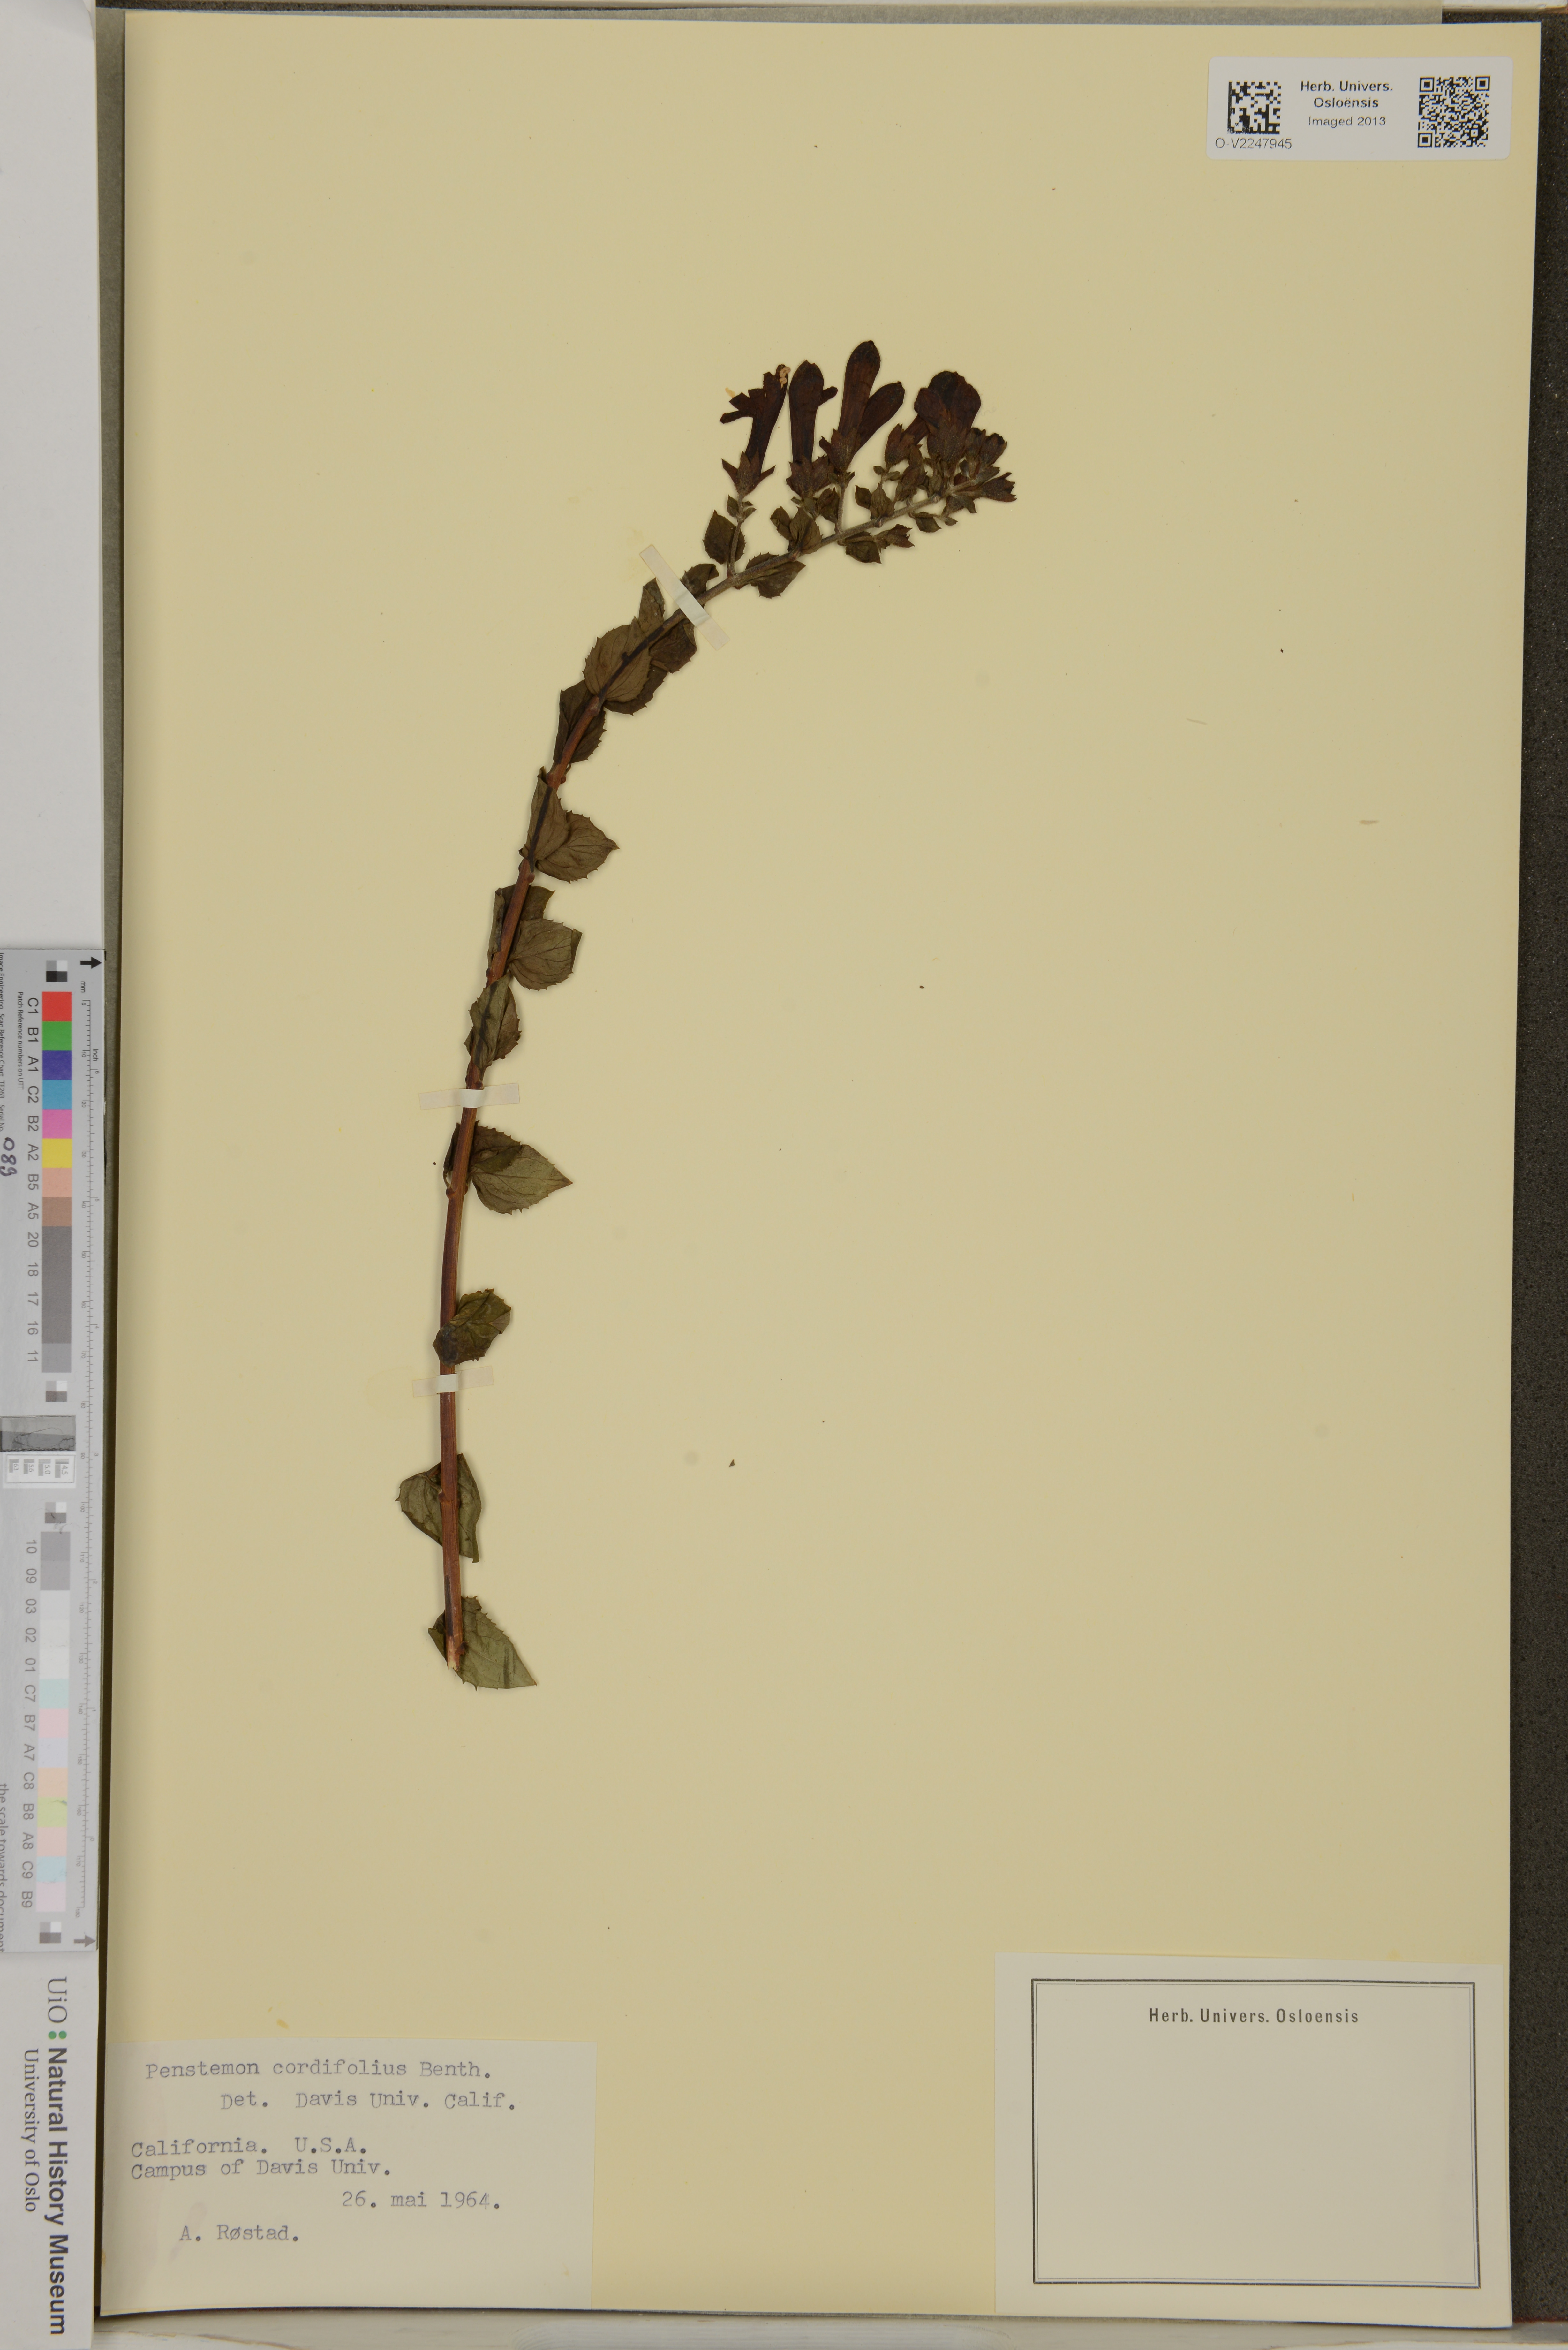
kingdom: Plantae
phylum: Tracheophyta
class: Magnoliopsida
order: Lamiales
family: Plantaginaceae
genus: Keckiella
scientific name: Keckiella cordifolia
